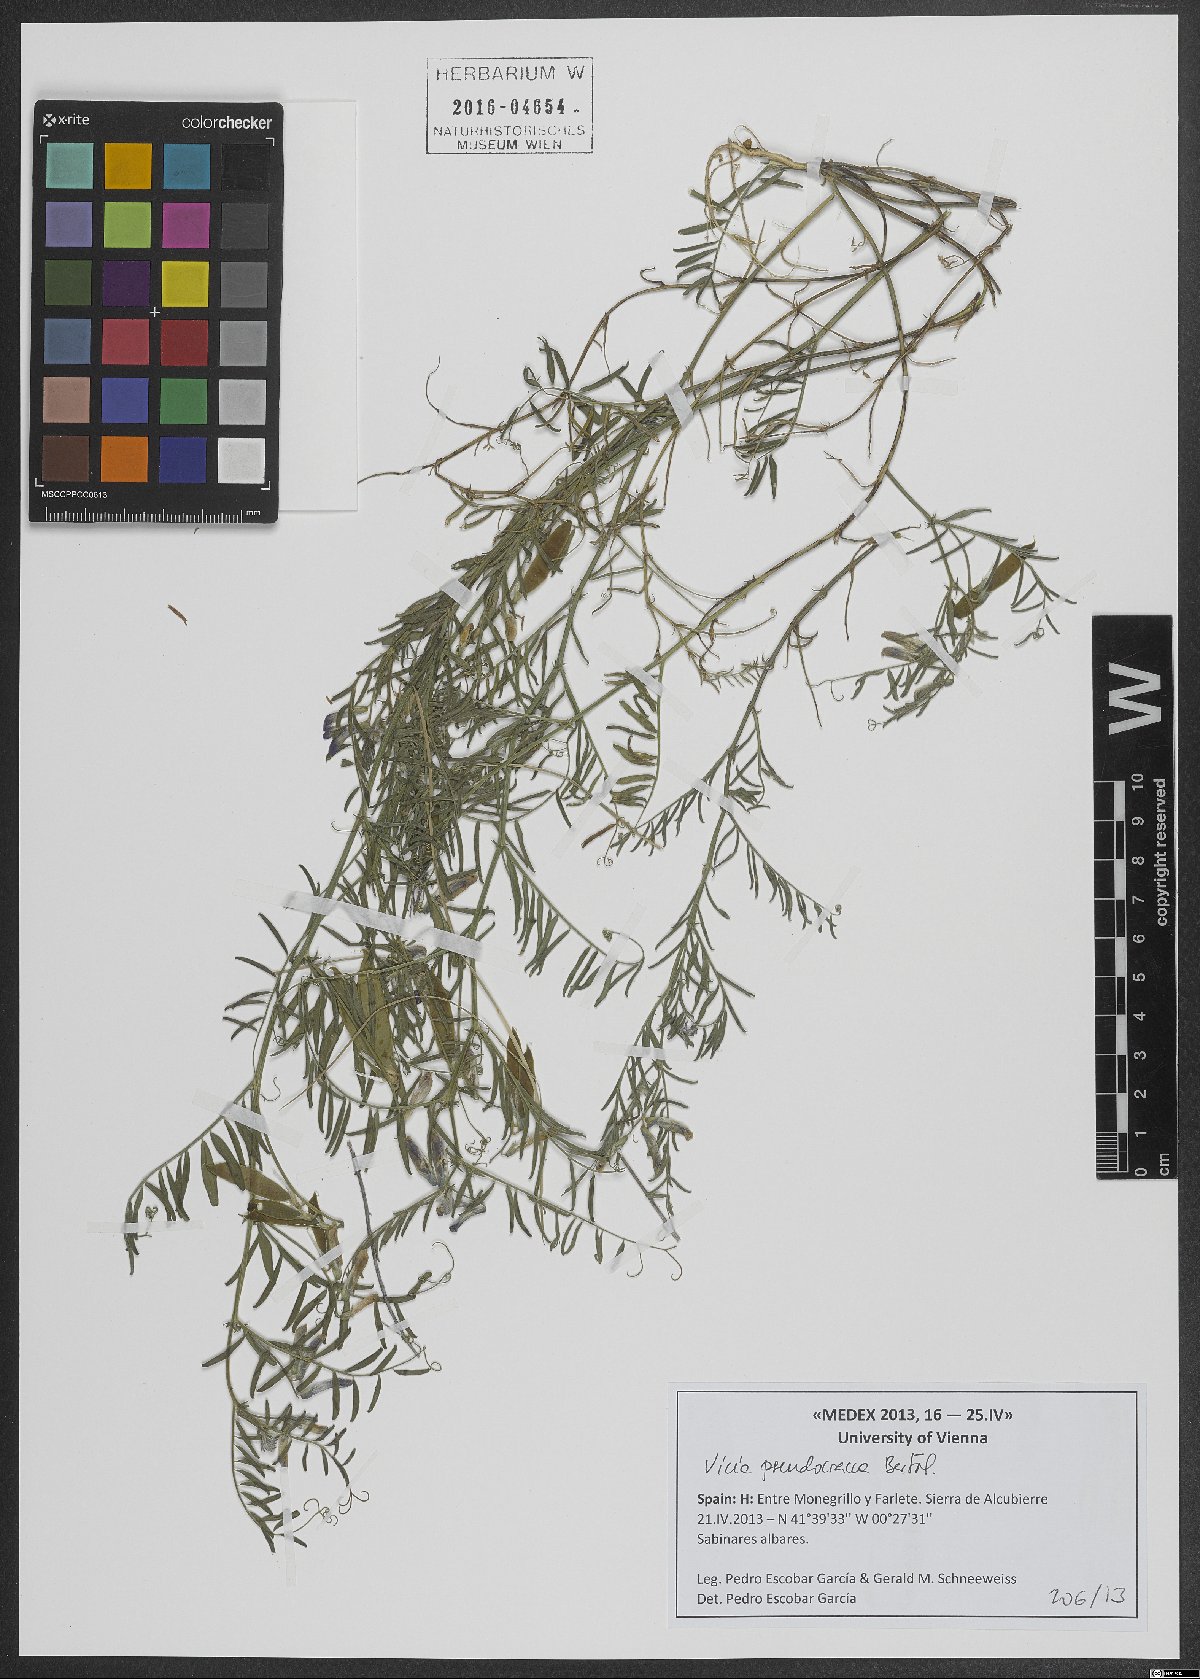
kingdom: Plantae
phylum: Tracheophyta
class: Magnoliopsida
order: Fabales
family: Fabaceae
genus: Vicia
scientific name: Vicia villosa
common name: Fodder vetch
